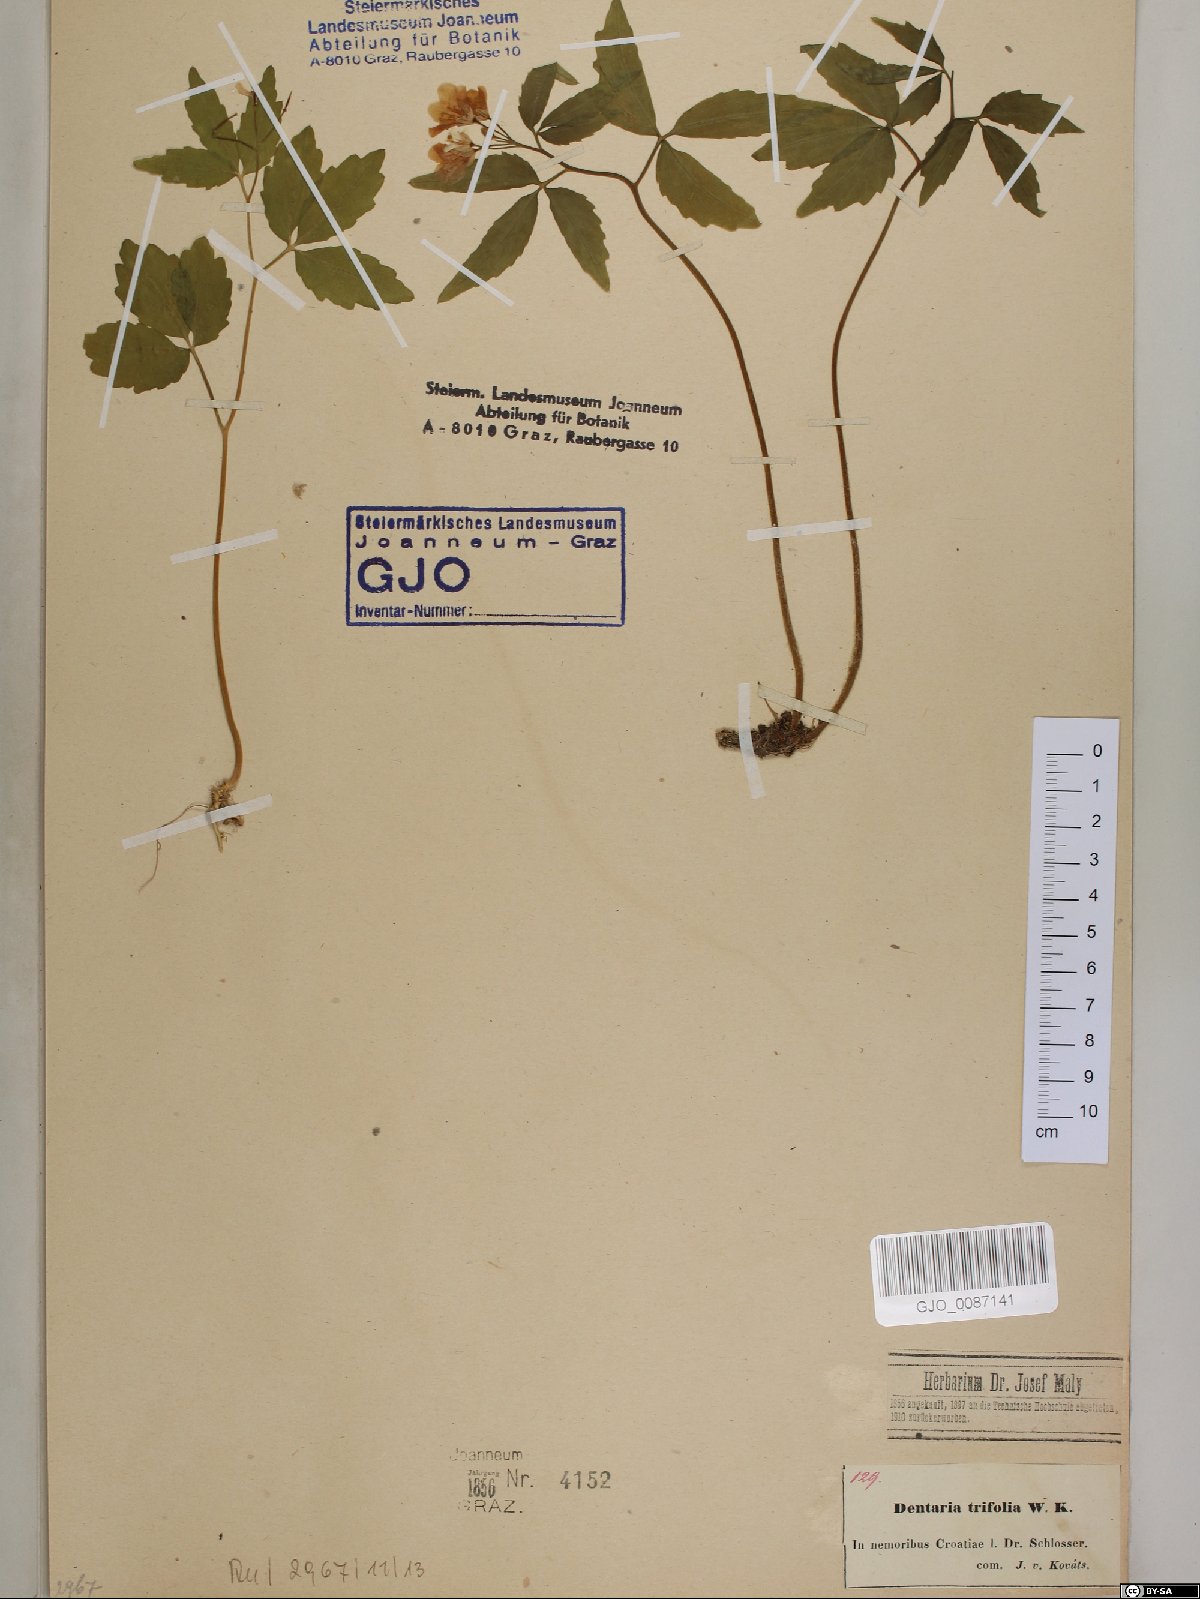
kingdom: Plantae
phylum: Tracheophyta
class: Magnoliopsida
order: Brassicales
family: Brassicaceae
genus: Cardamine
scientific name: Cardamine waldsteinii
